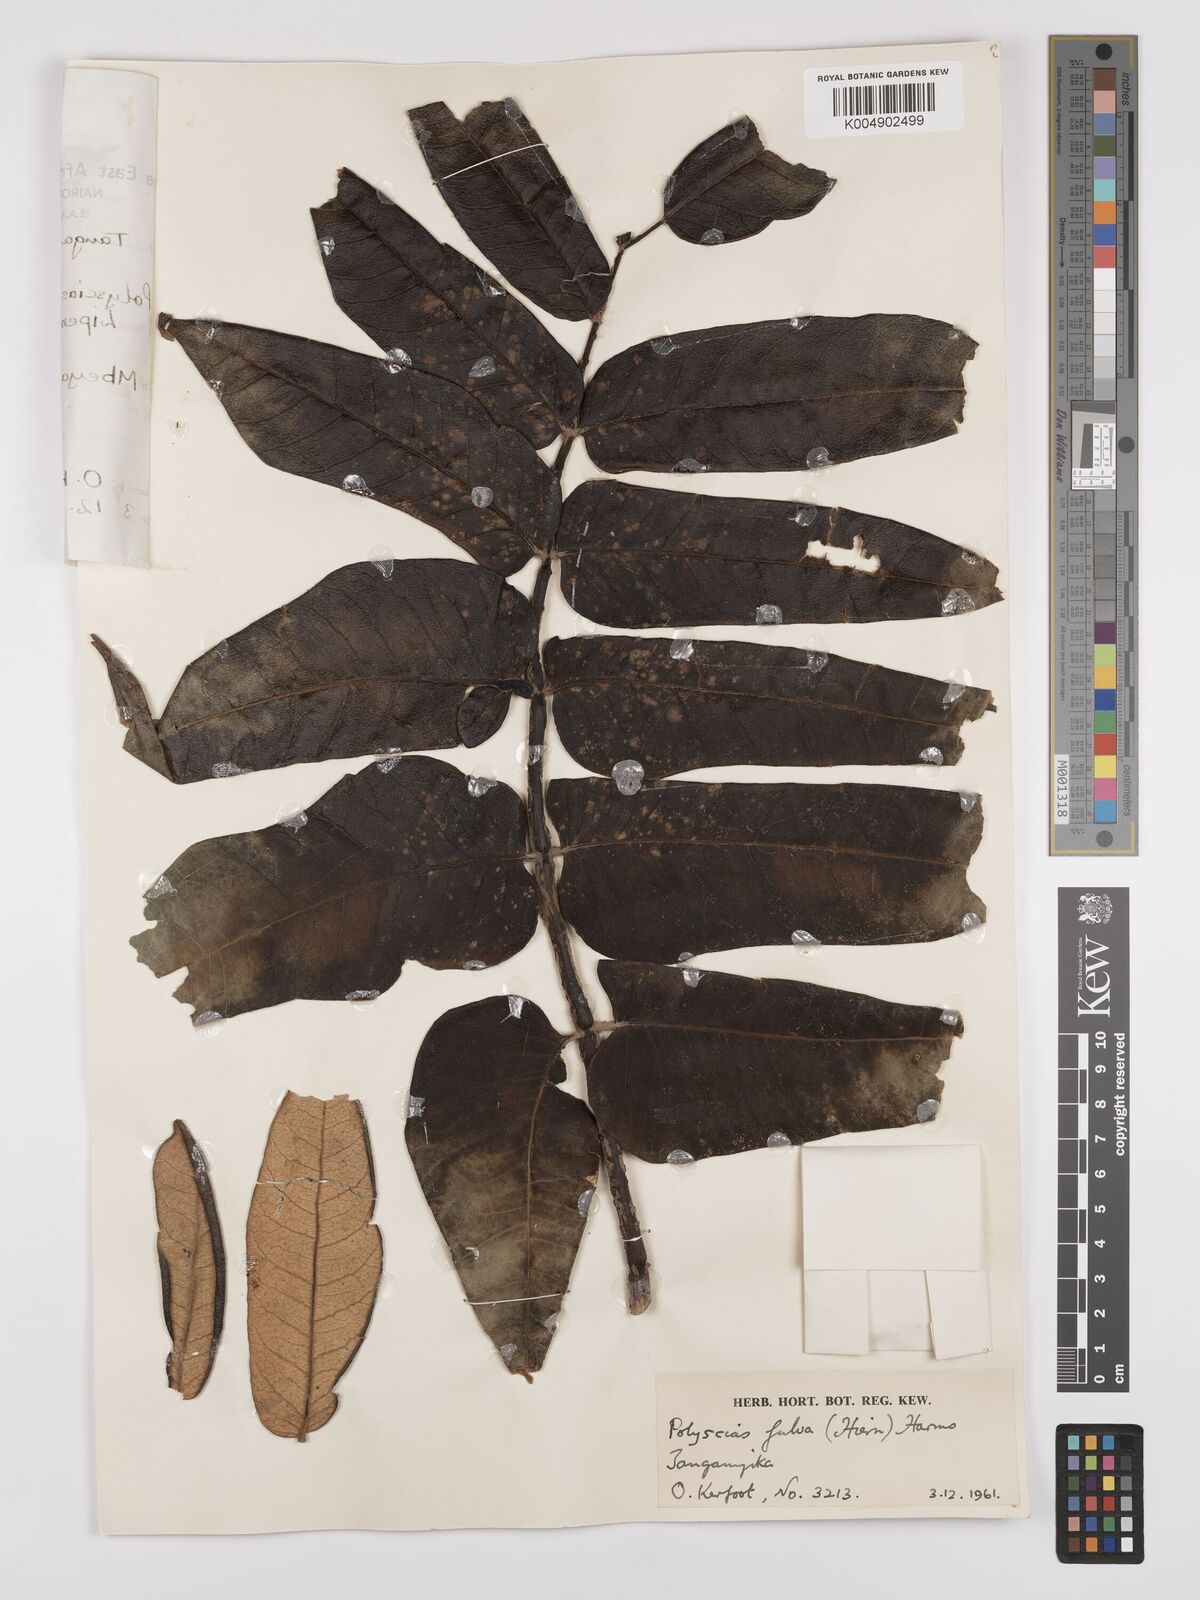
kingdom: Plantae
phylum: Tracheophyta
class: Magnoliopsida
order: Apiales
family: Araliaceae
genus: Polyscias
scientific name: Polyscias fulva
